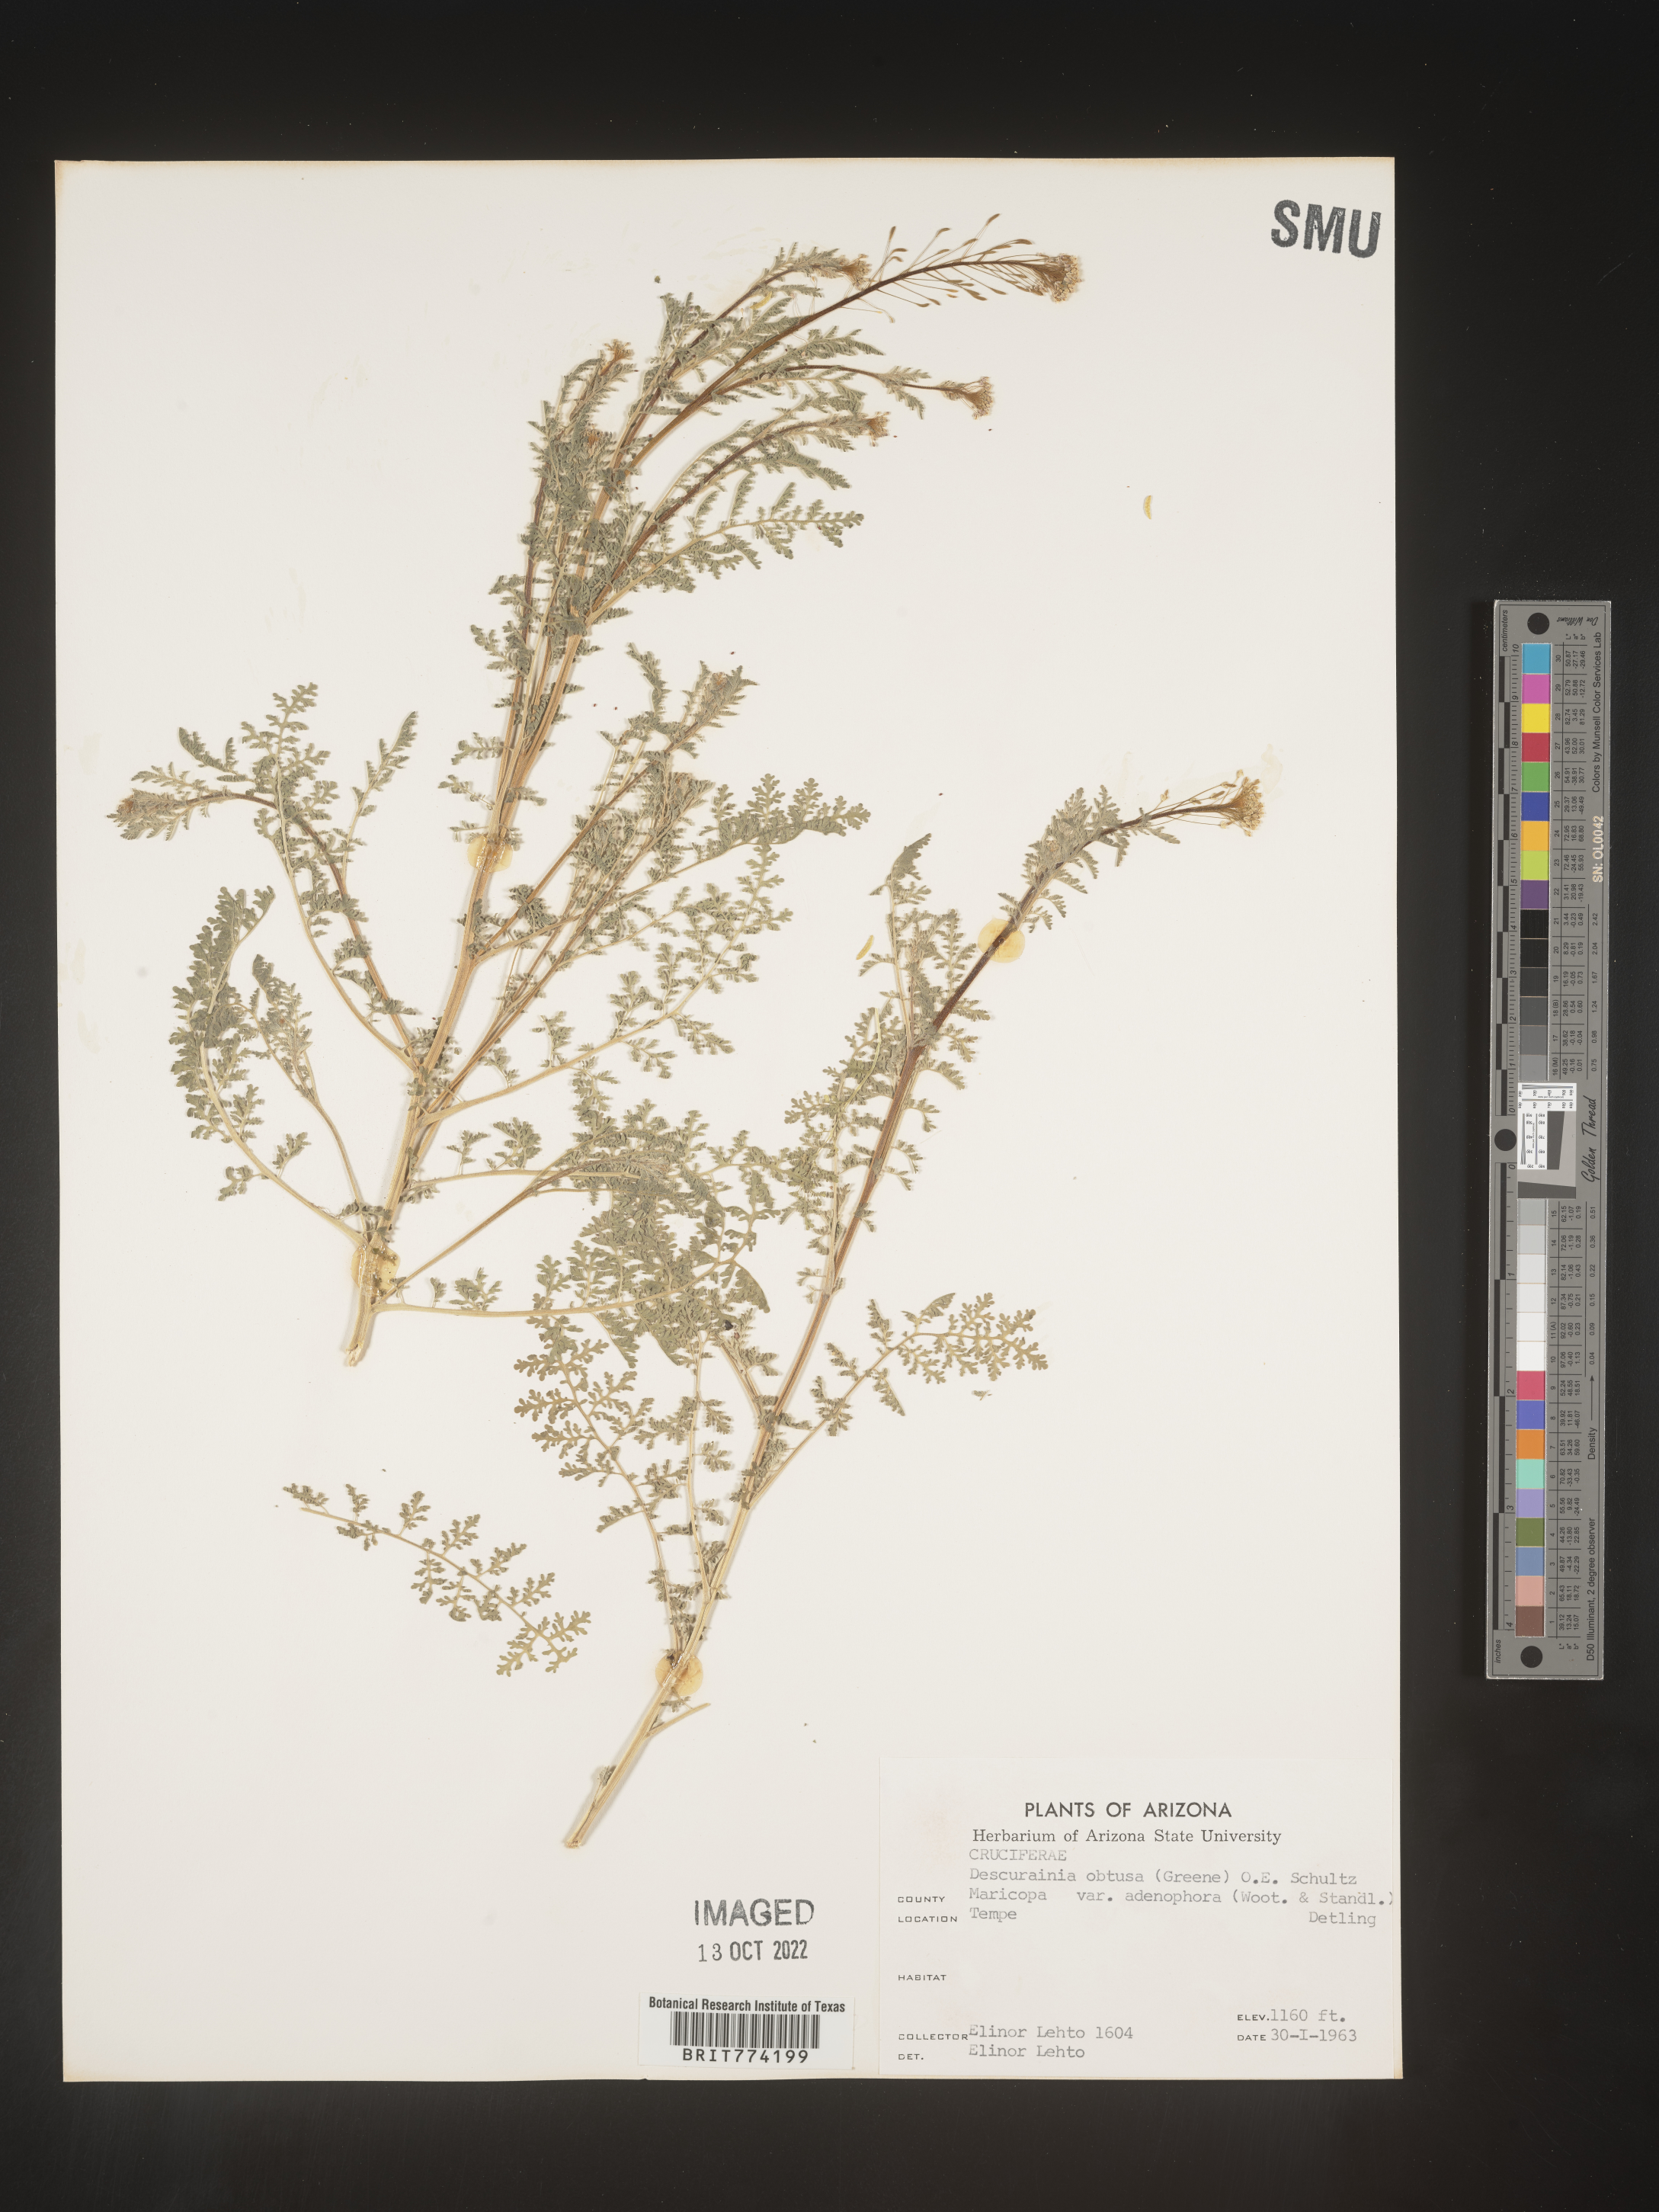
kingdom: Plantae
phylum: Tracheophyta
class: Magnoliopsida
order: Brassicales
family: Brassicaceae
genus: Descurainia
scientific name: Descurainia
